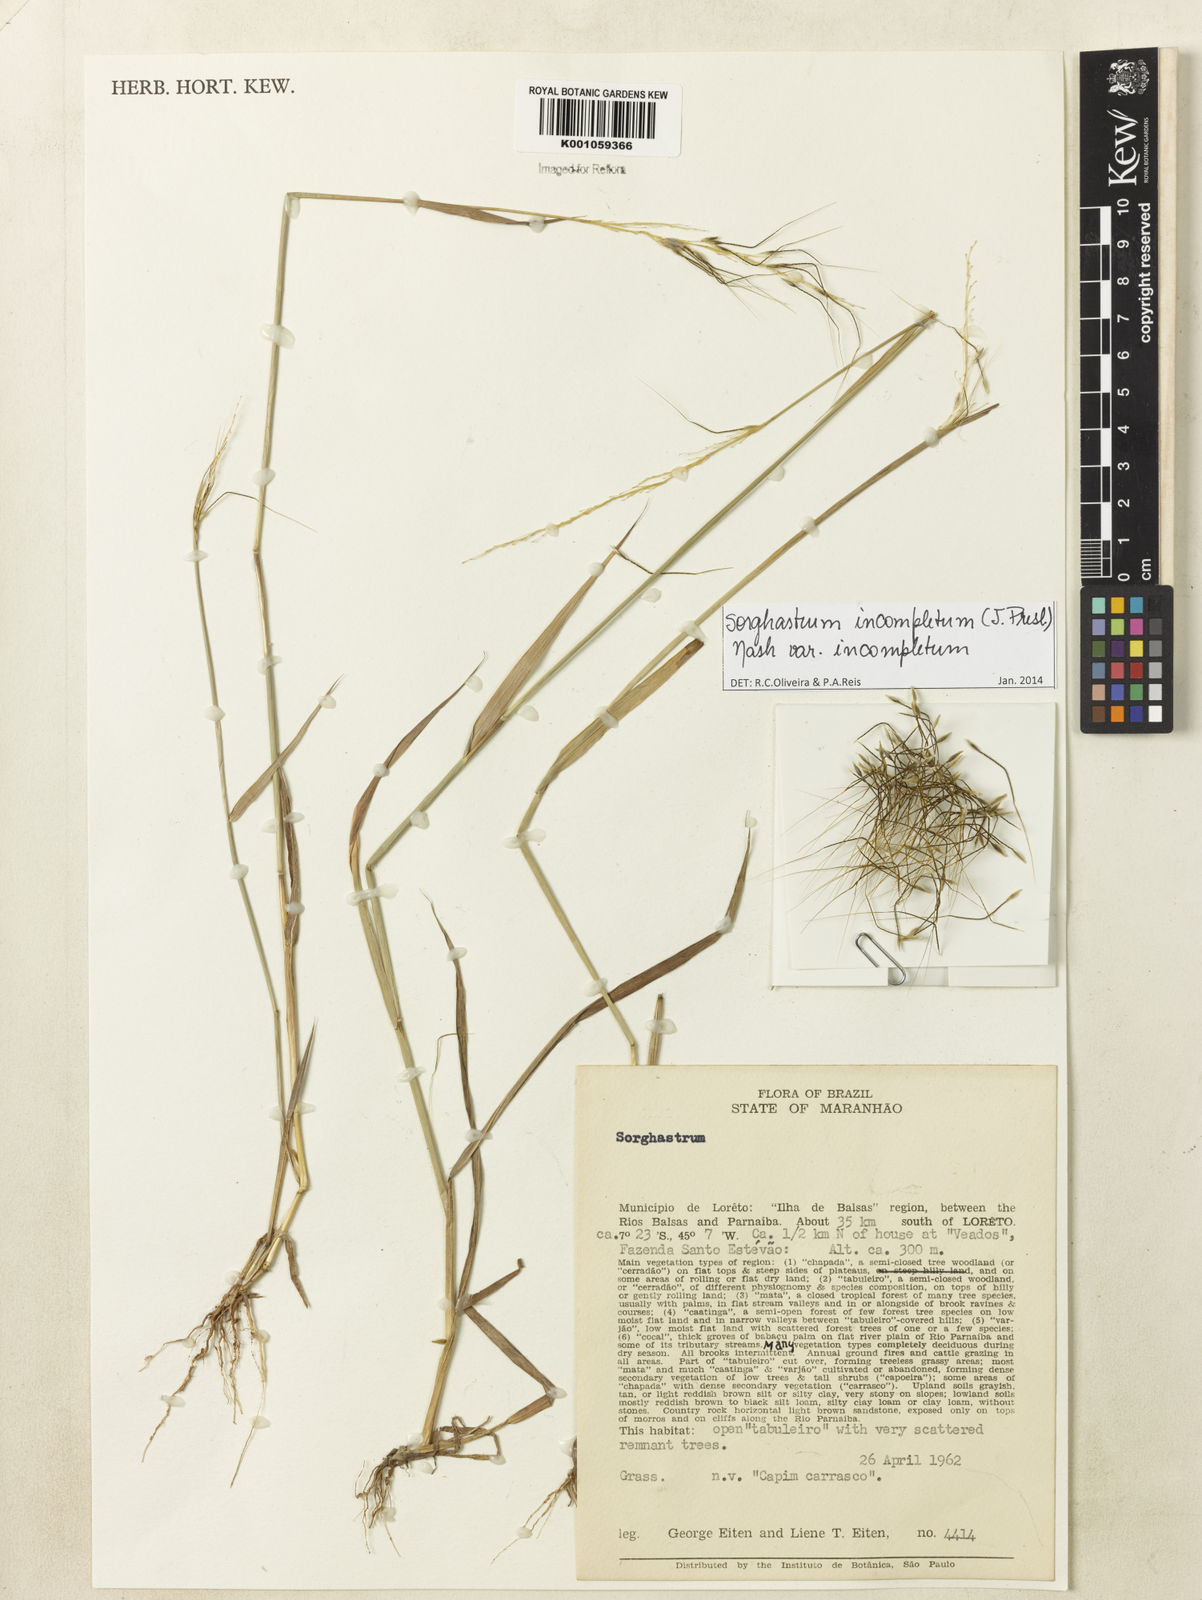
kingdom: Plantae
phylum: Tracheophyta
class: Liliopsida
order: Poales
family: Poaceae
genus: Sorghastrum
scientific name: Sorghastrum incompletum
